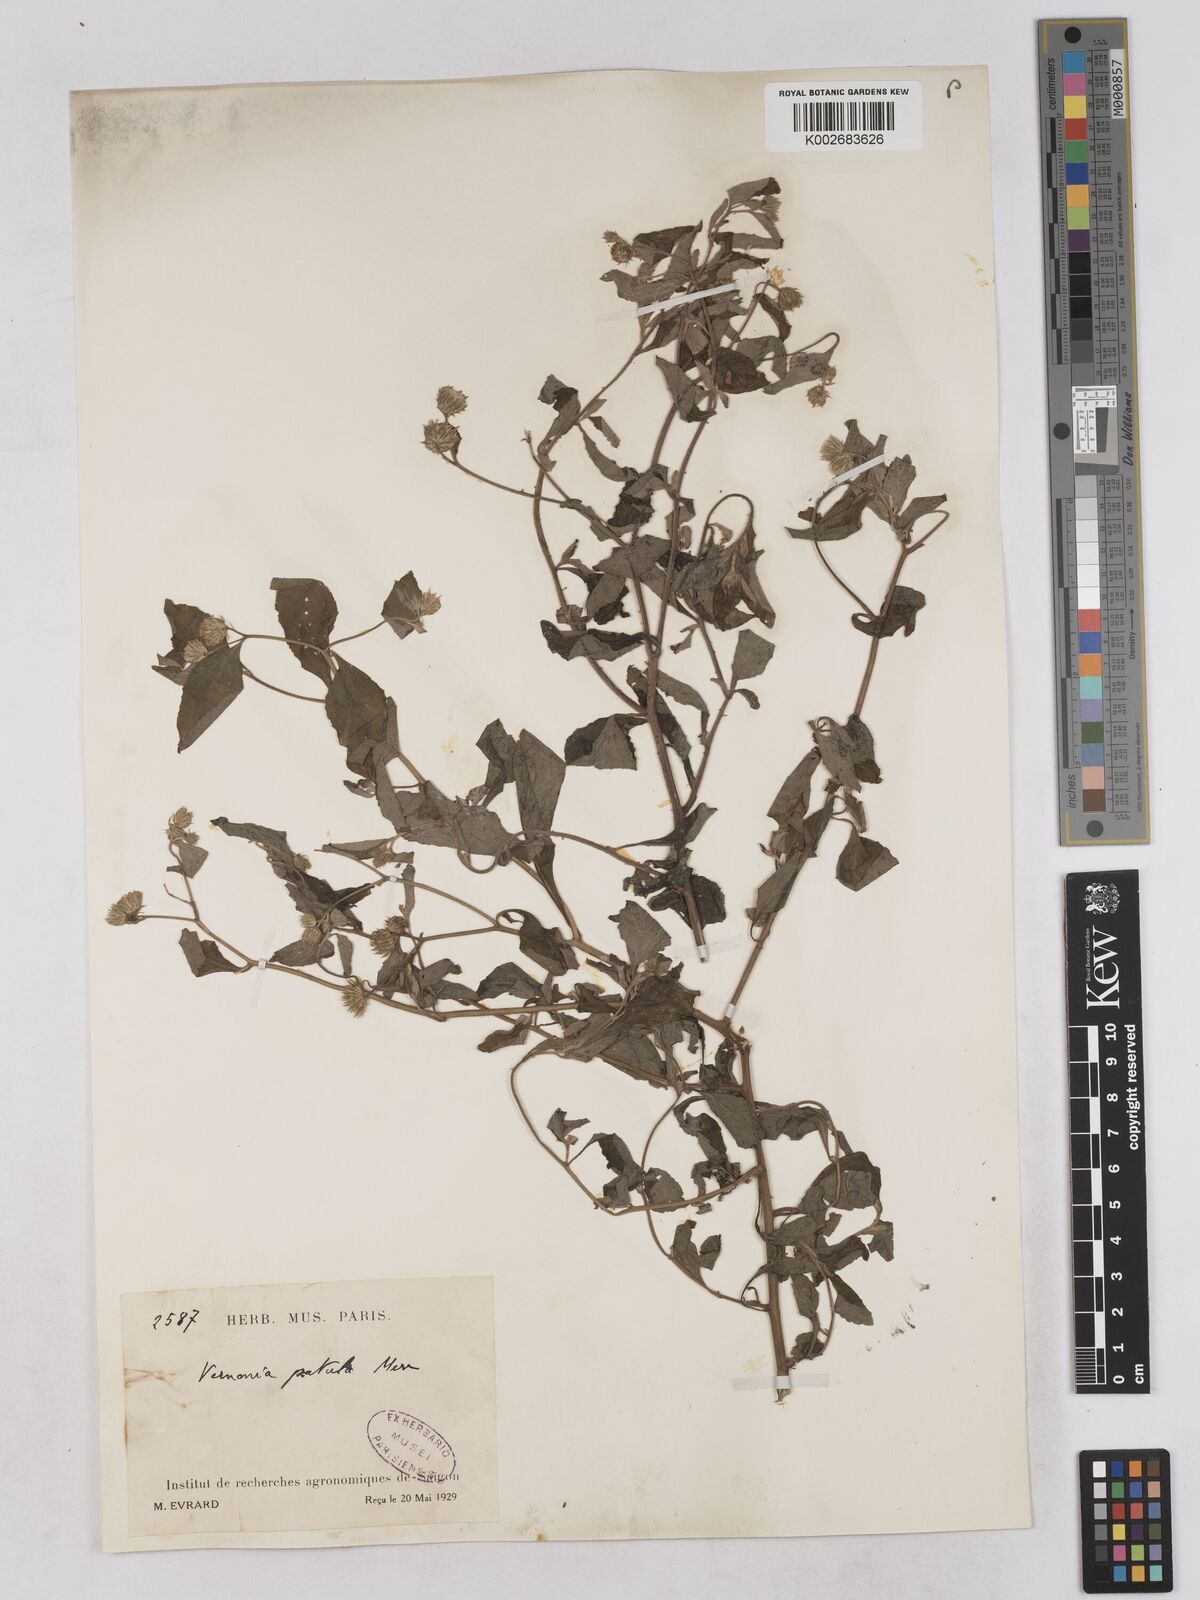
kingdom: Plantae
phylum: Tracheophyta
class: Magnoliopsida
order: Asterales
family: Asteraceae
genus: Cyanthillium
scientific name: Cyanthillium patulum
